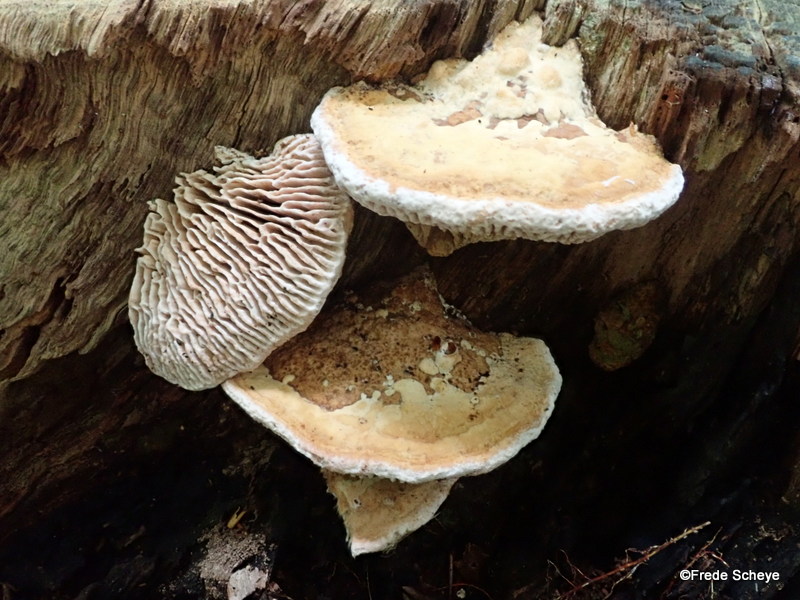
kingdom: Fungi
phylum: Basidiomycota
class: Agaricomycetes
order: Polyporales
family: Fomitopsidaceae
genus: Daedalea
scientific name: Daedalea quercina
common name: ege-labyrintsvamp
